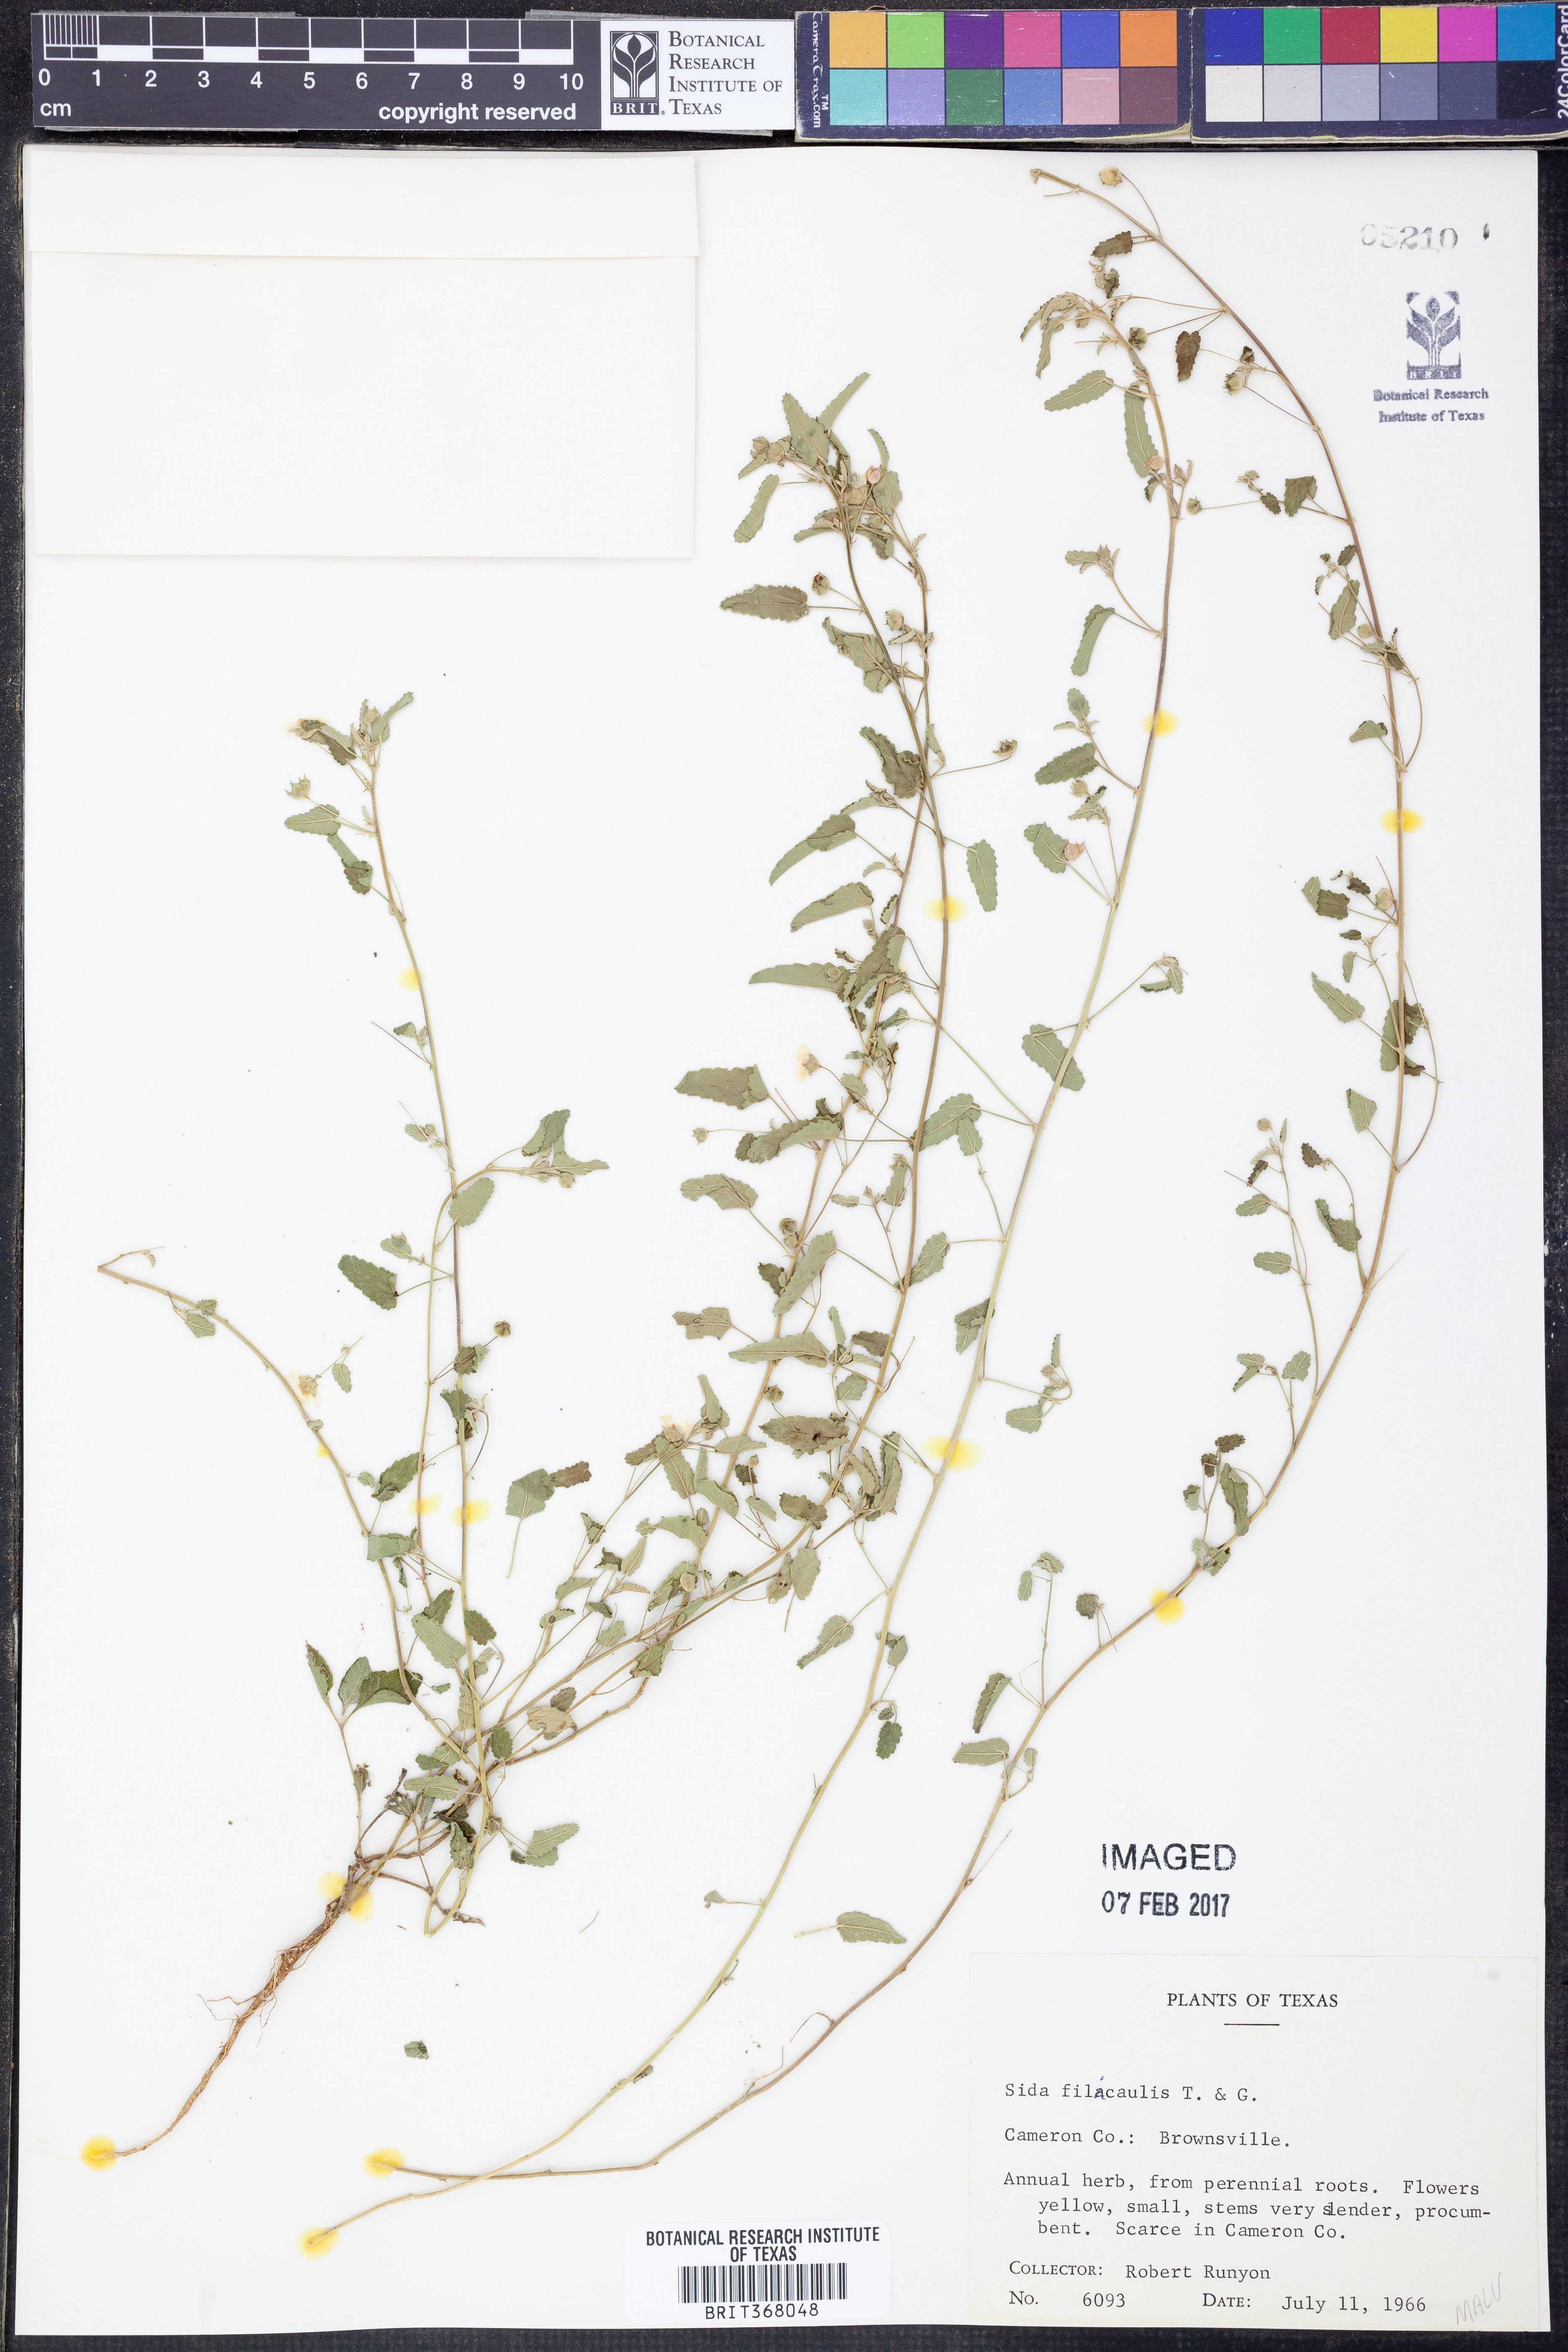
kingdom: Plantae
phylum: Tracheophyta
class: Magnoliopsida
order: Malvales
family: Malvaceae
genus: Sida
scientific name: Sida abutilifolia
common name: Spreading fanpetals
